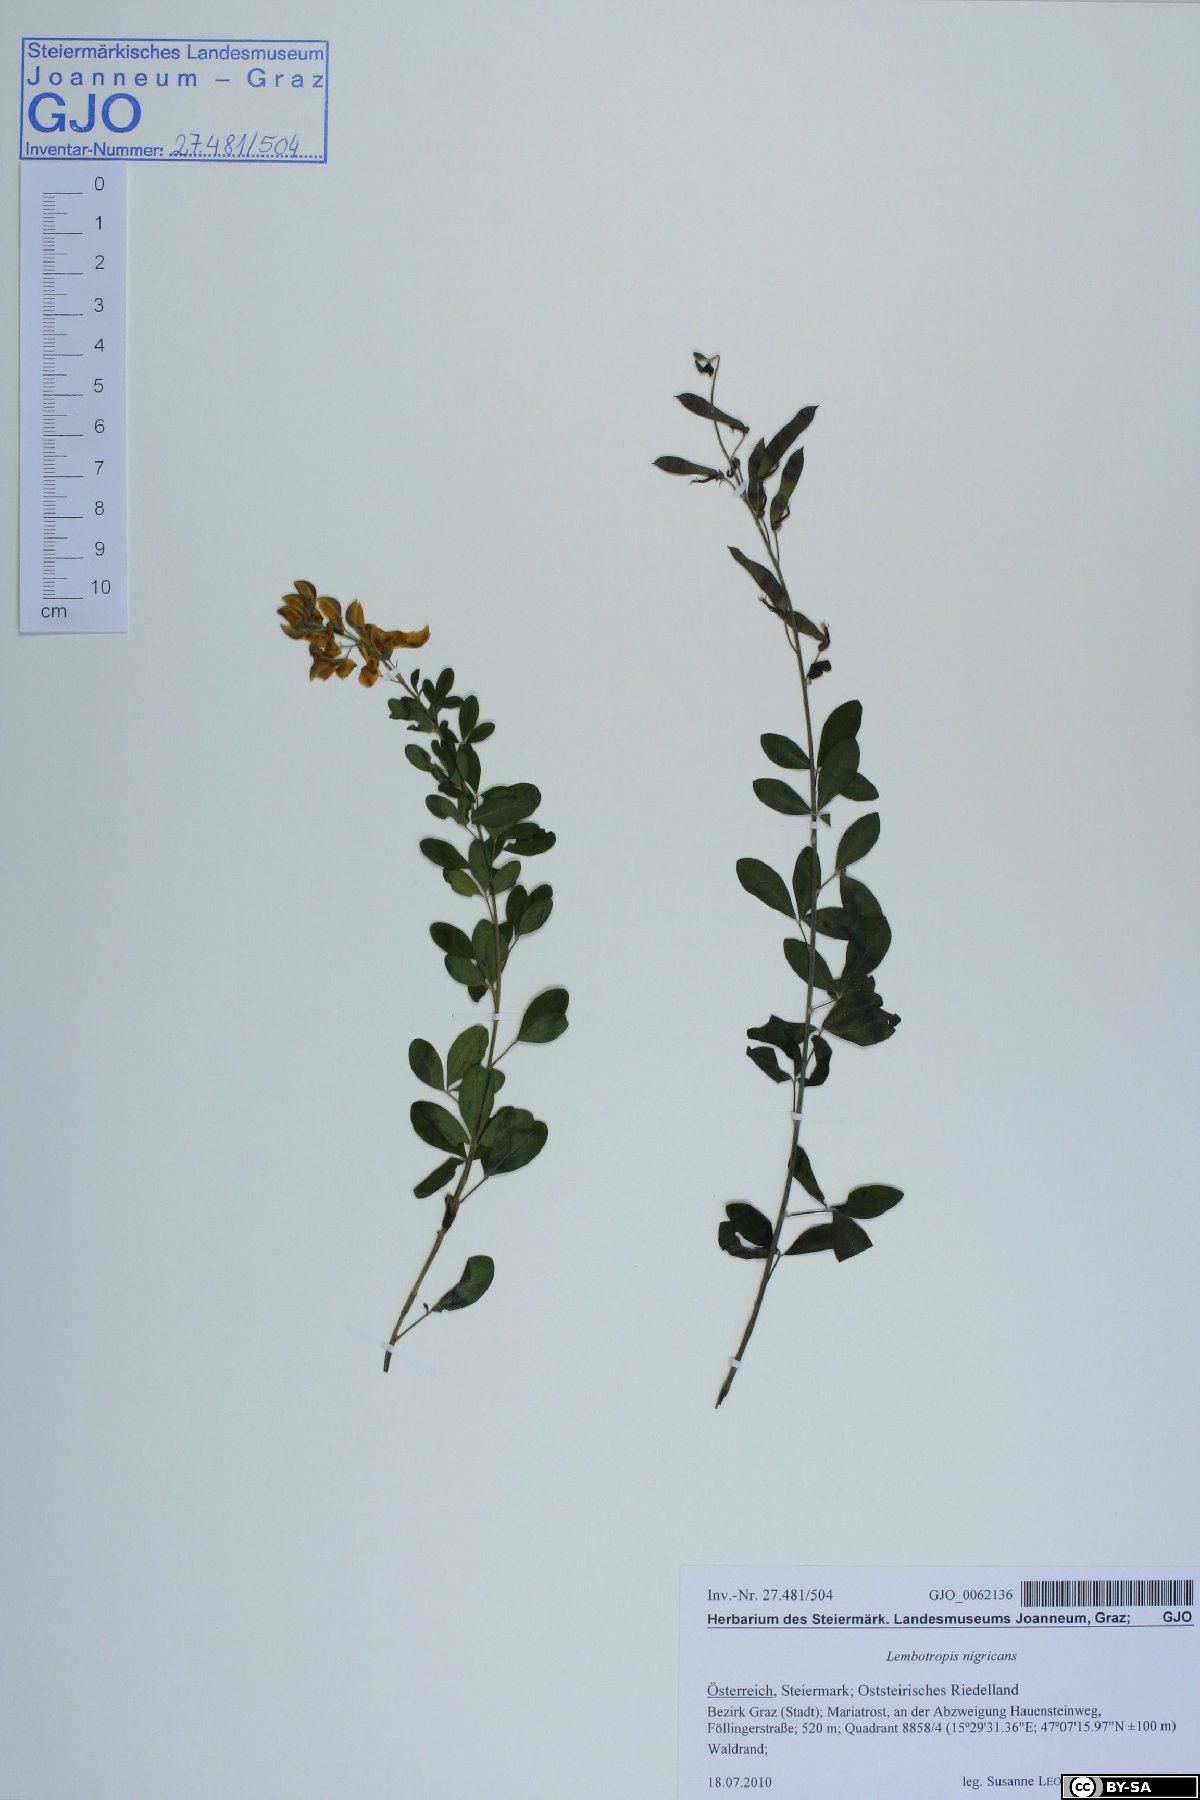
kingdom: Plantae
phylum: Tracheophyta
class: Magnoliopsida
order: Fabales
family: Fabaceae
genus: Cytisus
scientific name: Cytisus nigricans
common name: Black broom
